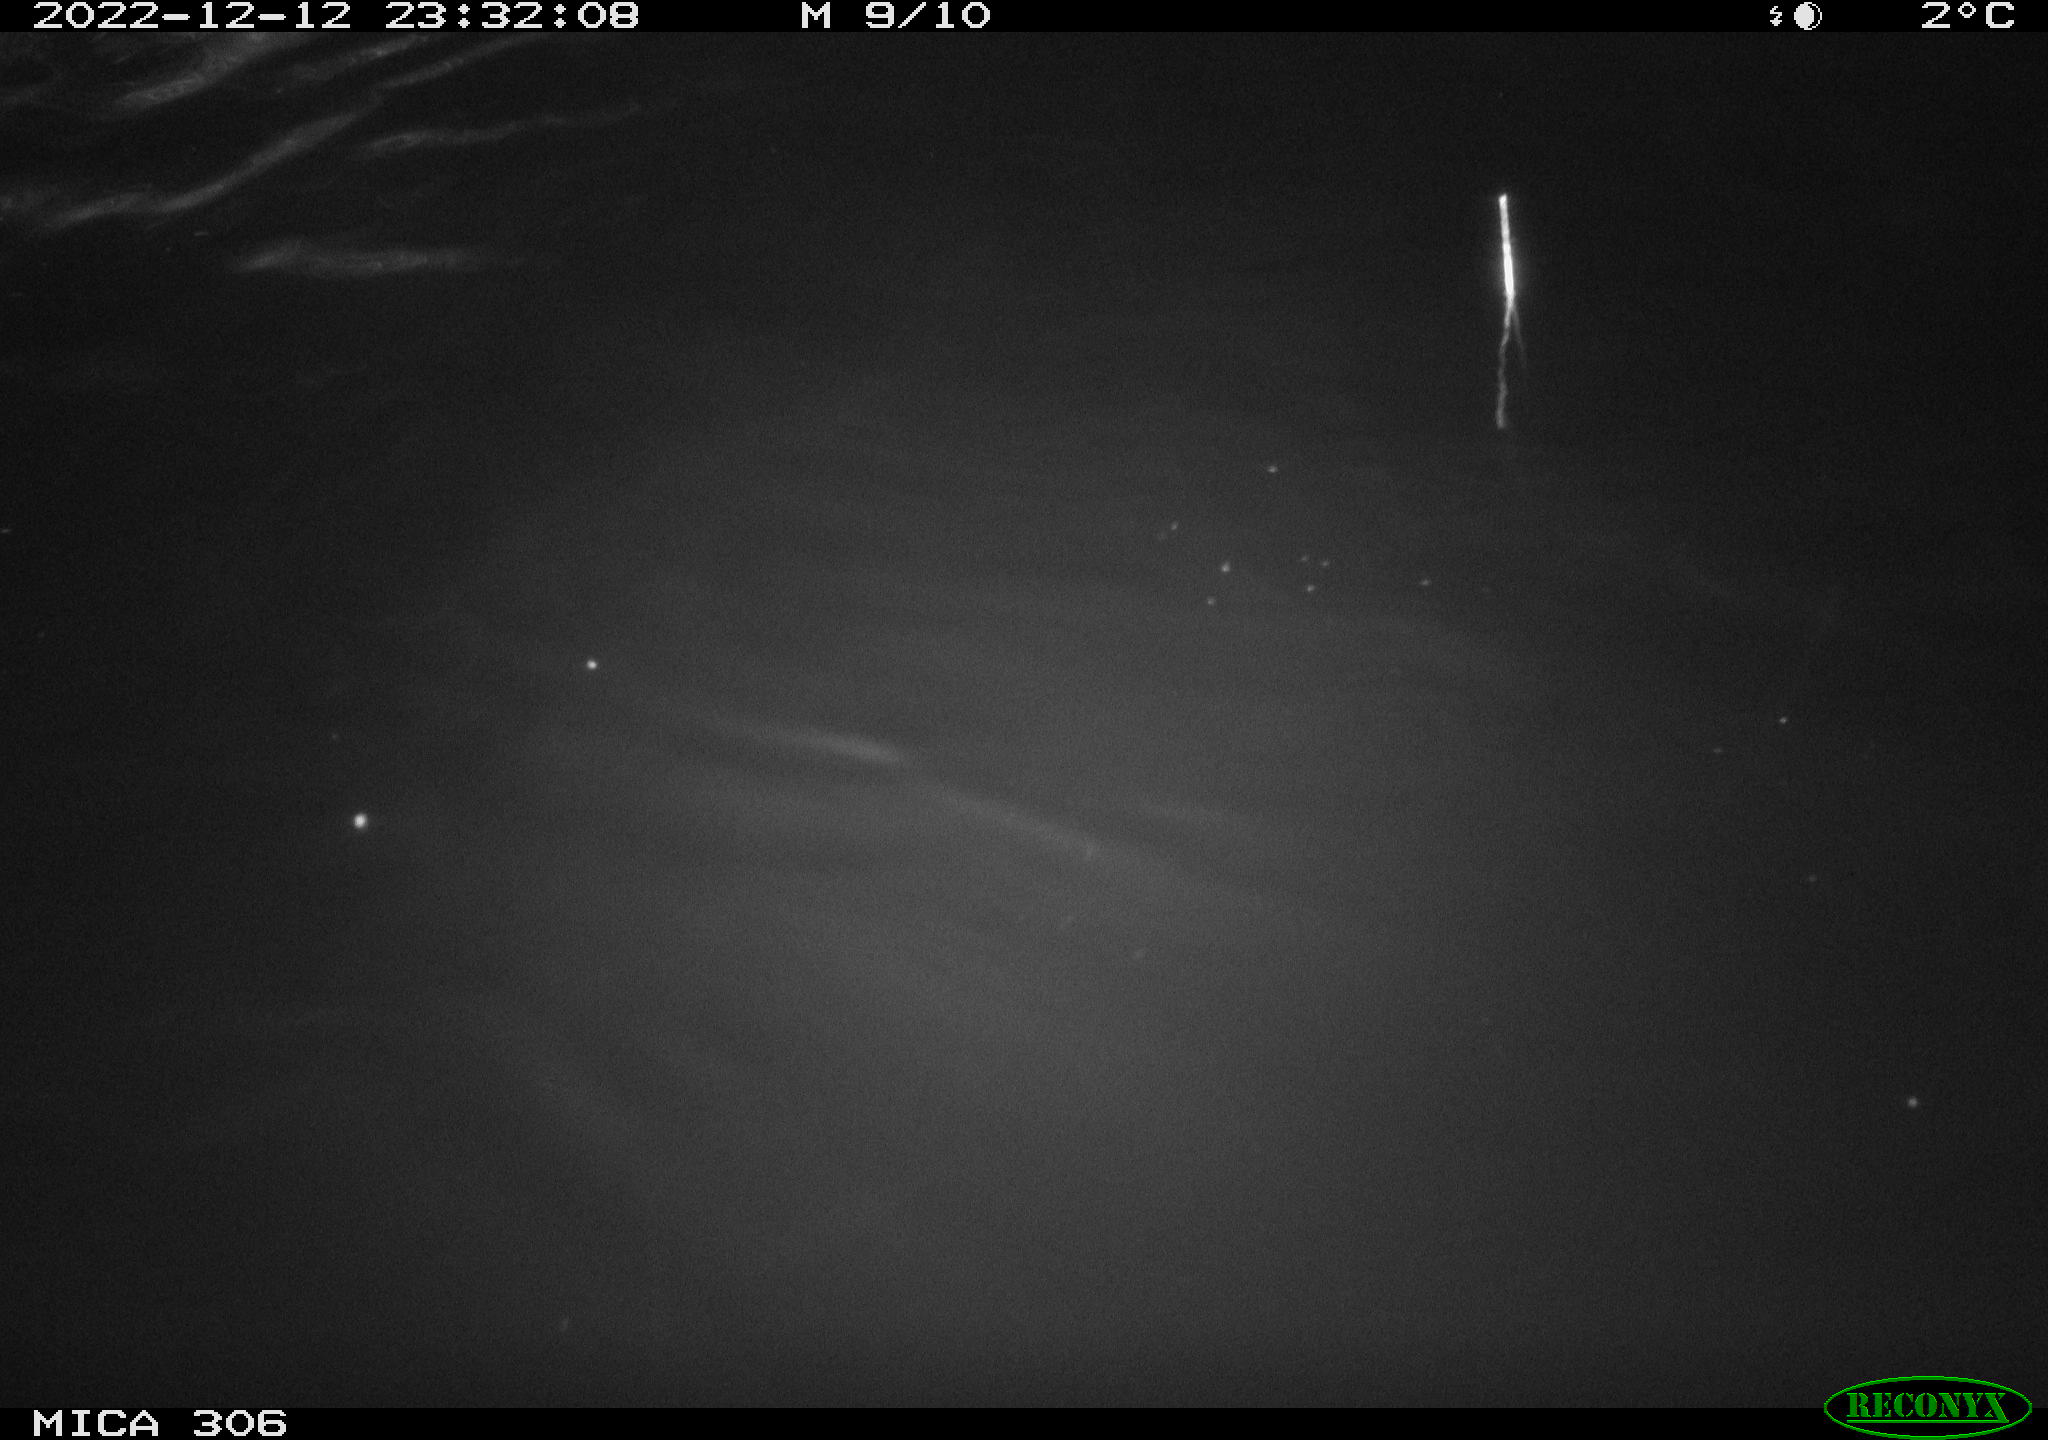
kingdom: Animalia
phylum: Chordata
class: Aves
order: Anseriformes
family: Anatidae
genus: Anas
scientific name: Anas
